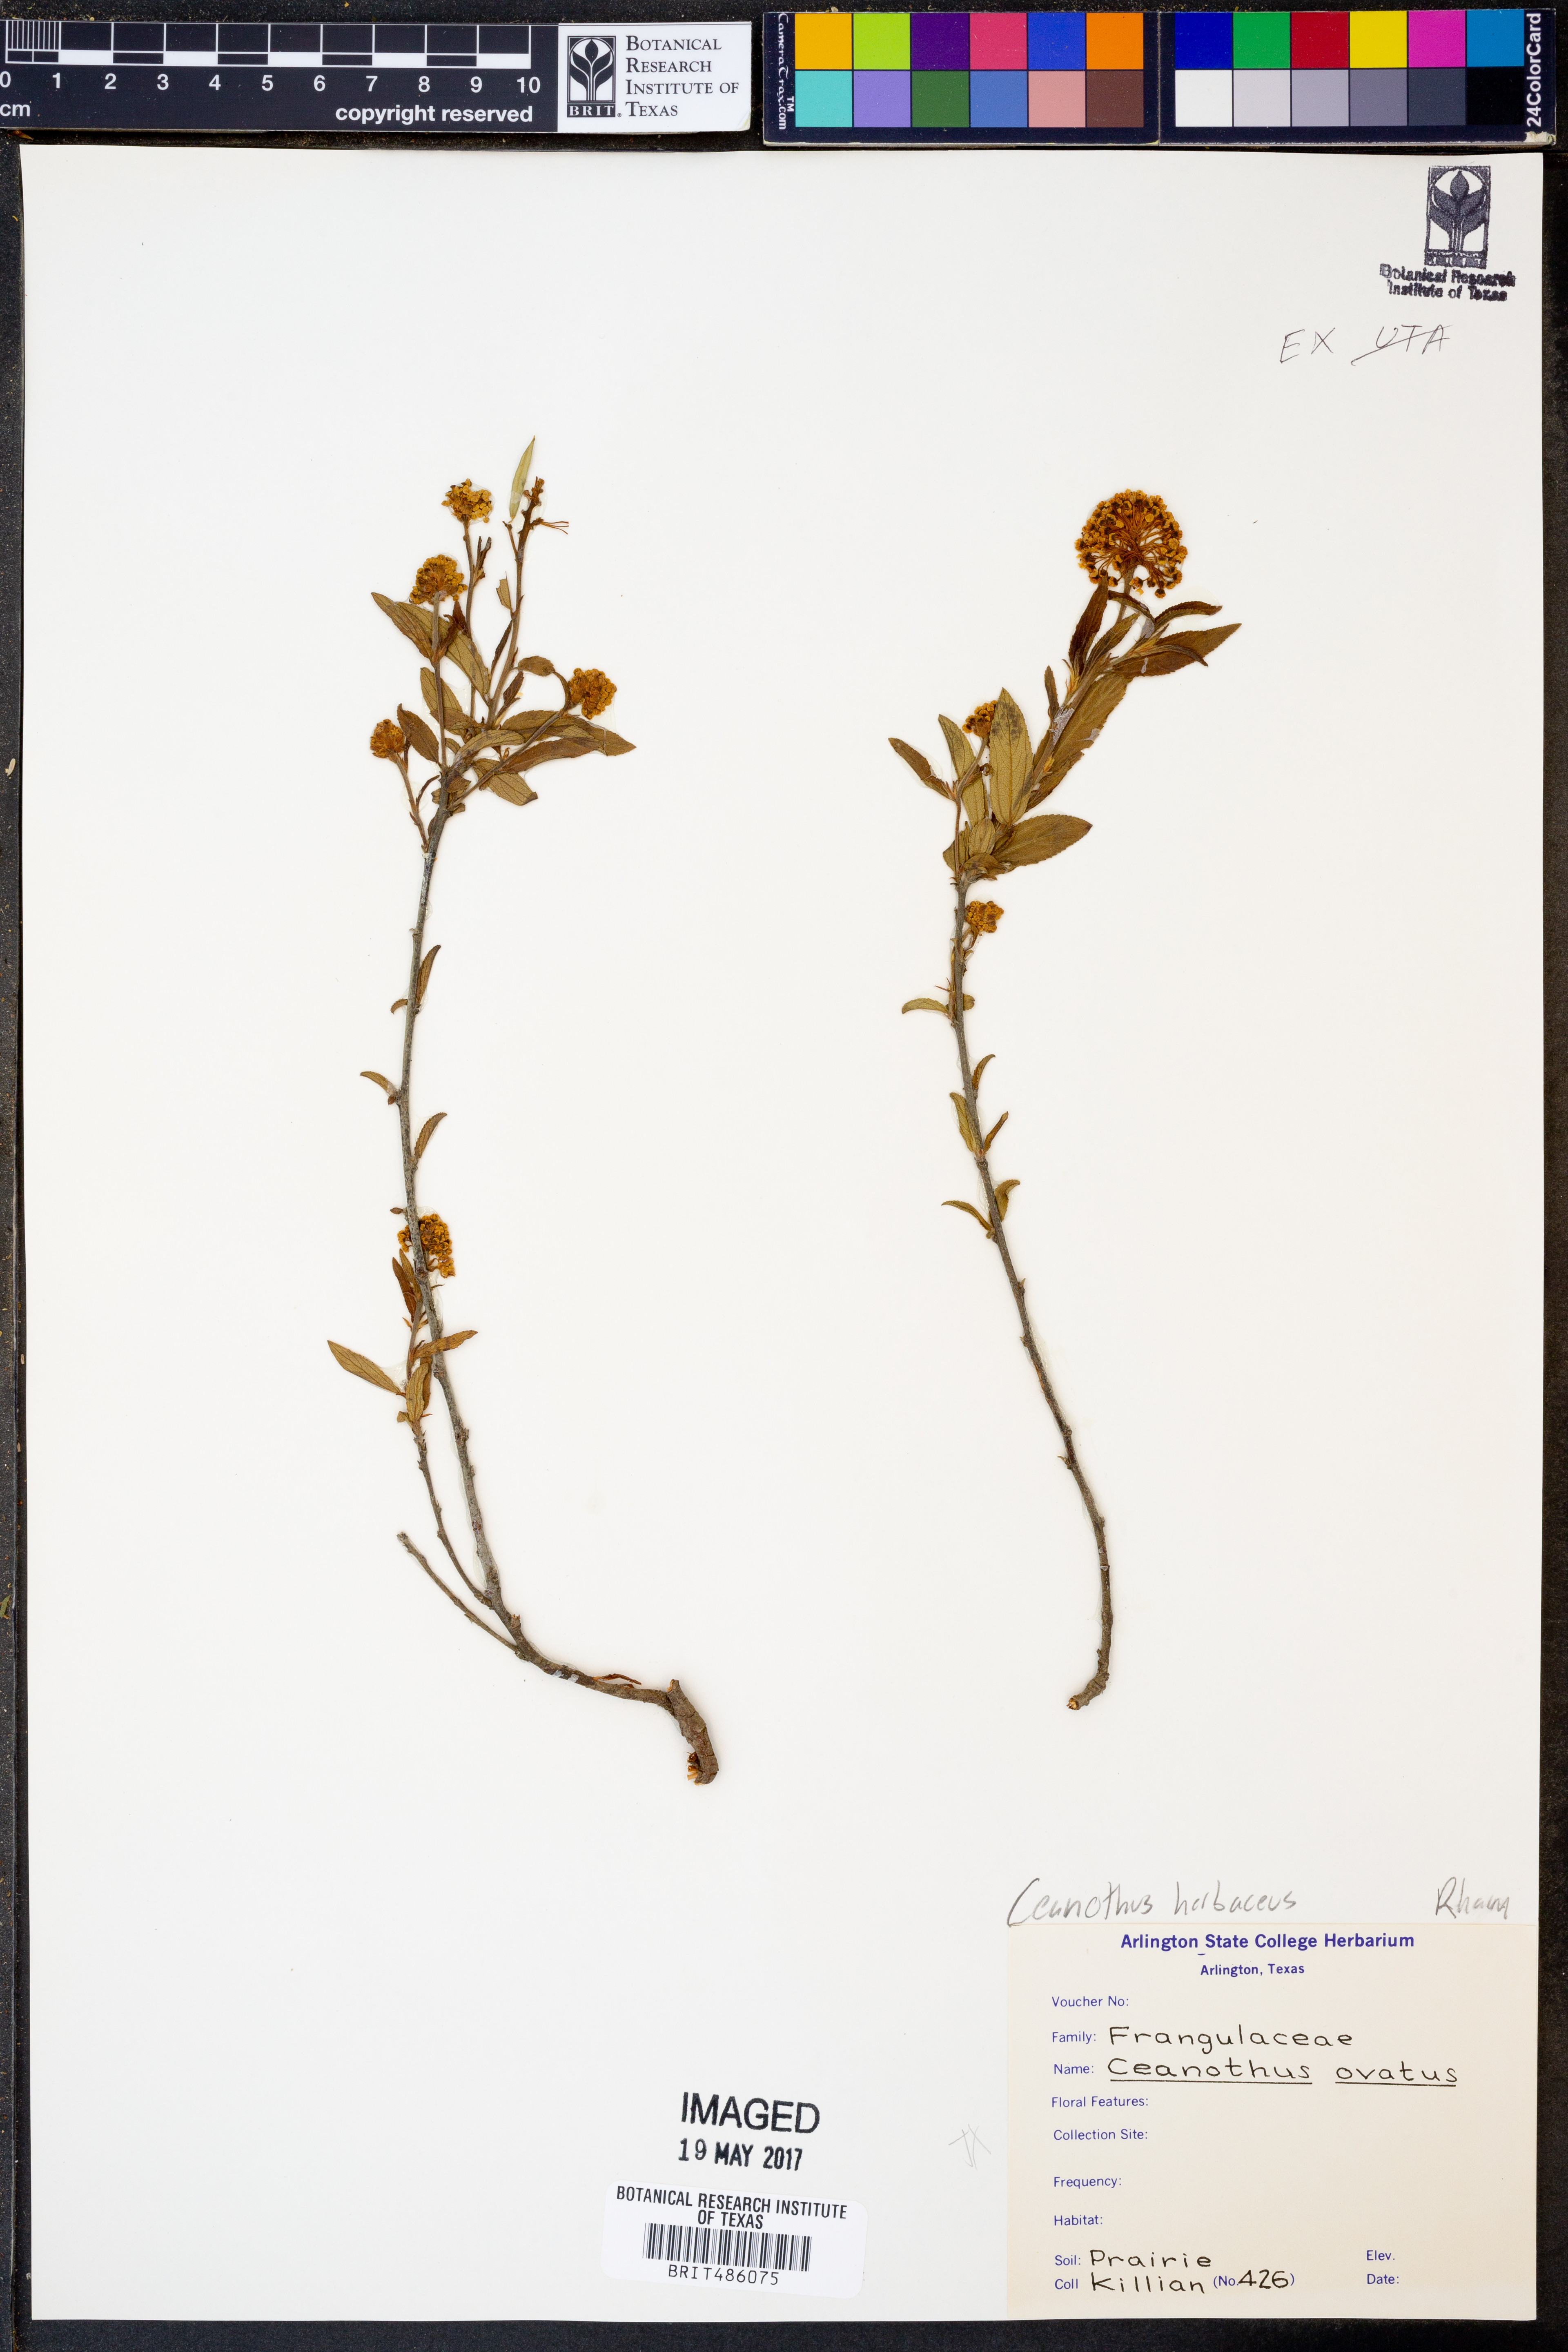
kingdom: Plantae
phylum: Tracheophyta
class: Magnoliopsida
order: Rosales
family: Rhamnaceae
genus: Ceanothus
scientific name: Ceanothus herbaceus
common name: Inland ceanothus
